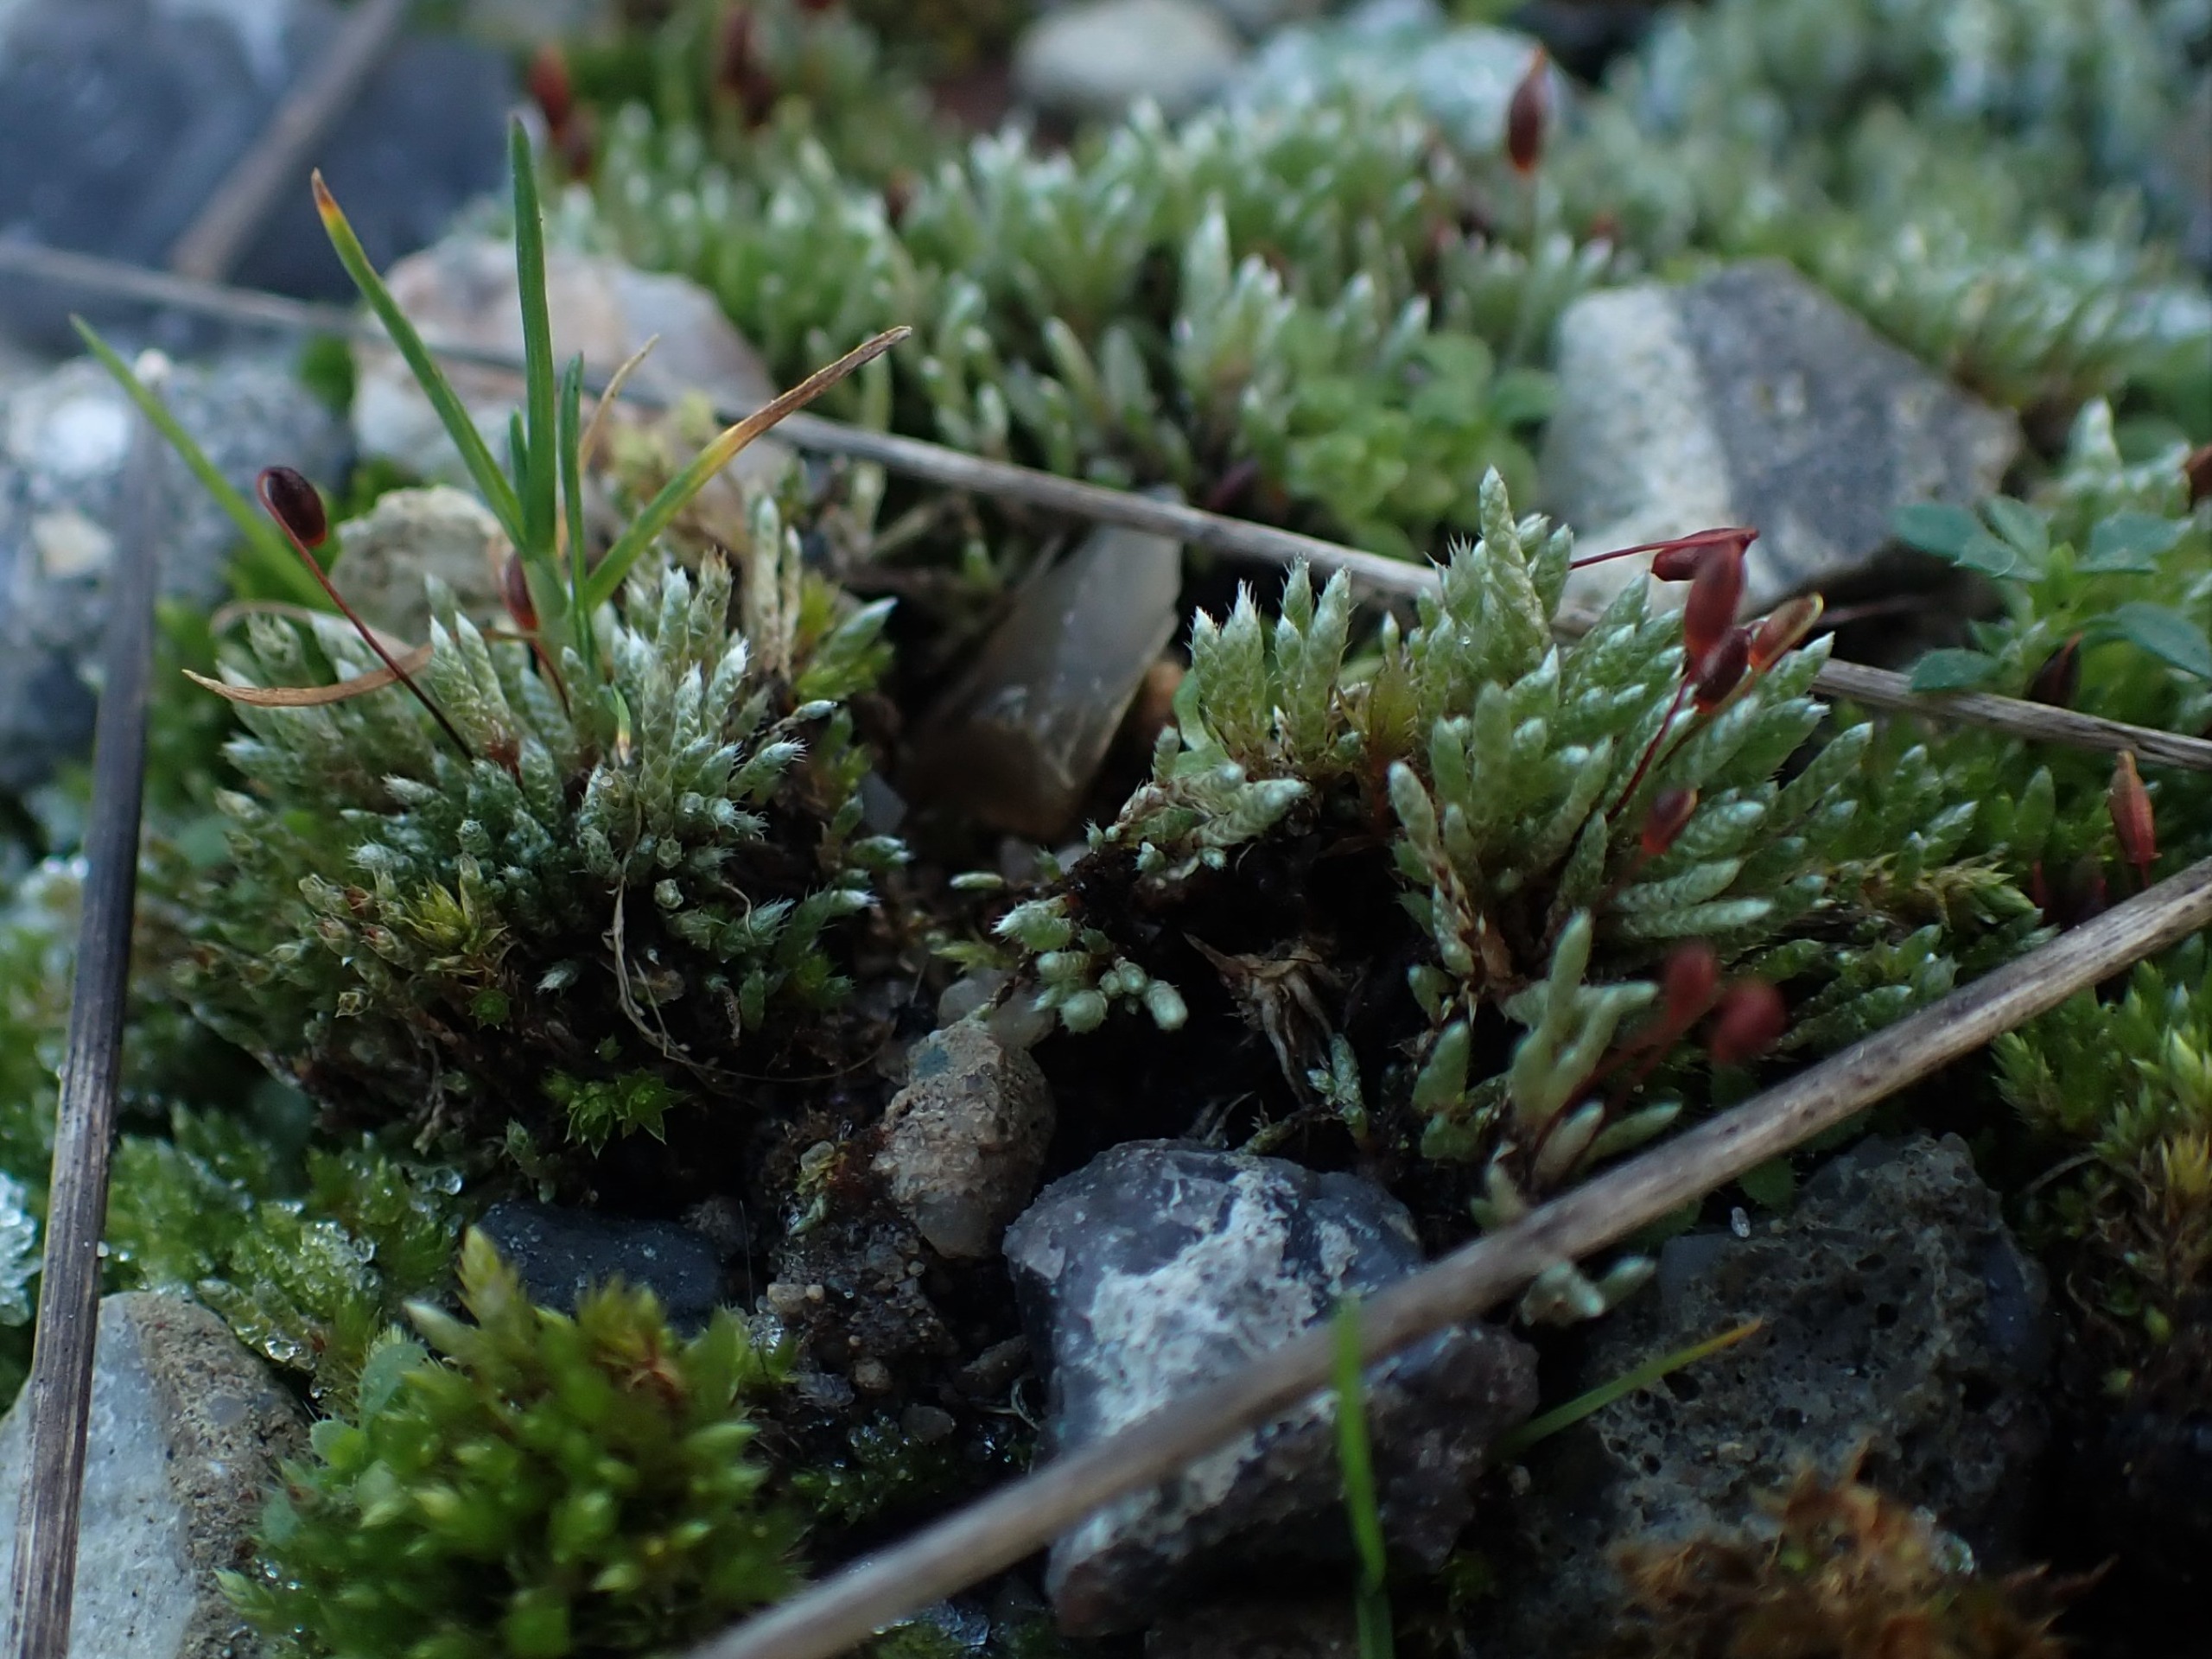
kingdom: Plantae
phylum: Bryophyta
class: Bryopsida
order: Bryales
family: Bryaceae
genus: Bryum
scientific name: Bryum argenteum
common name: Sølv-bryum
